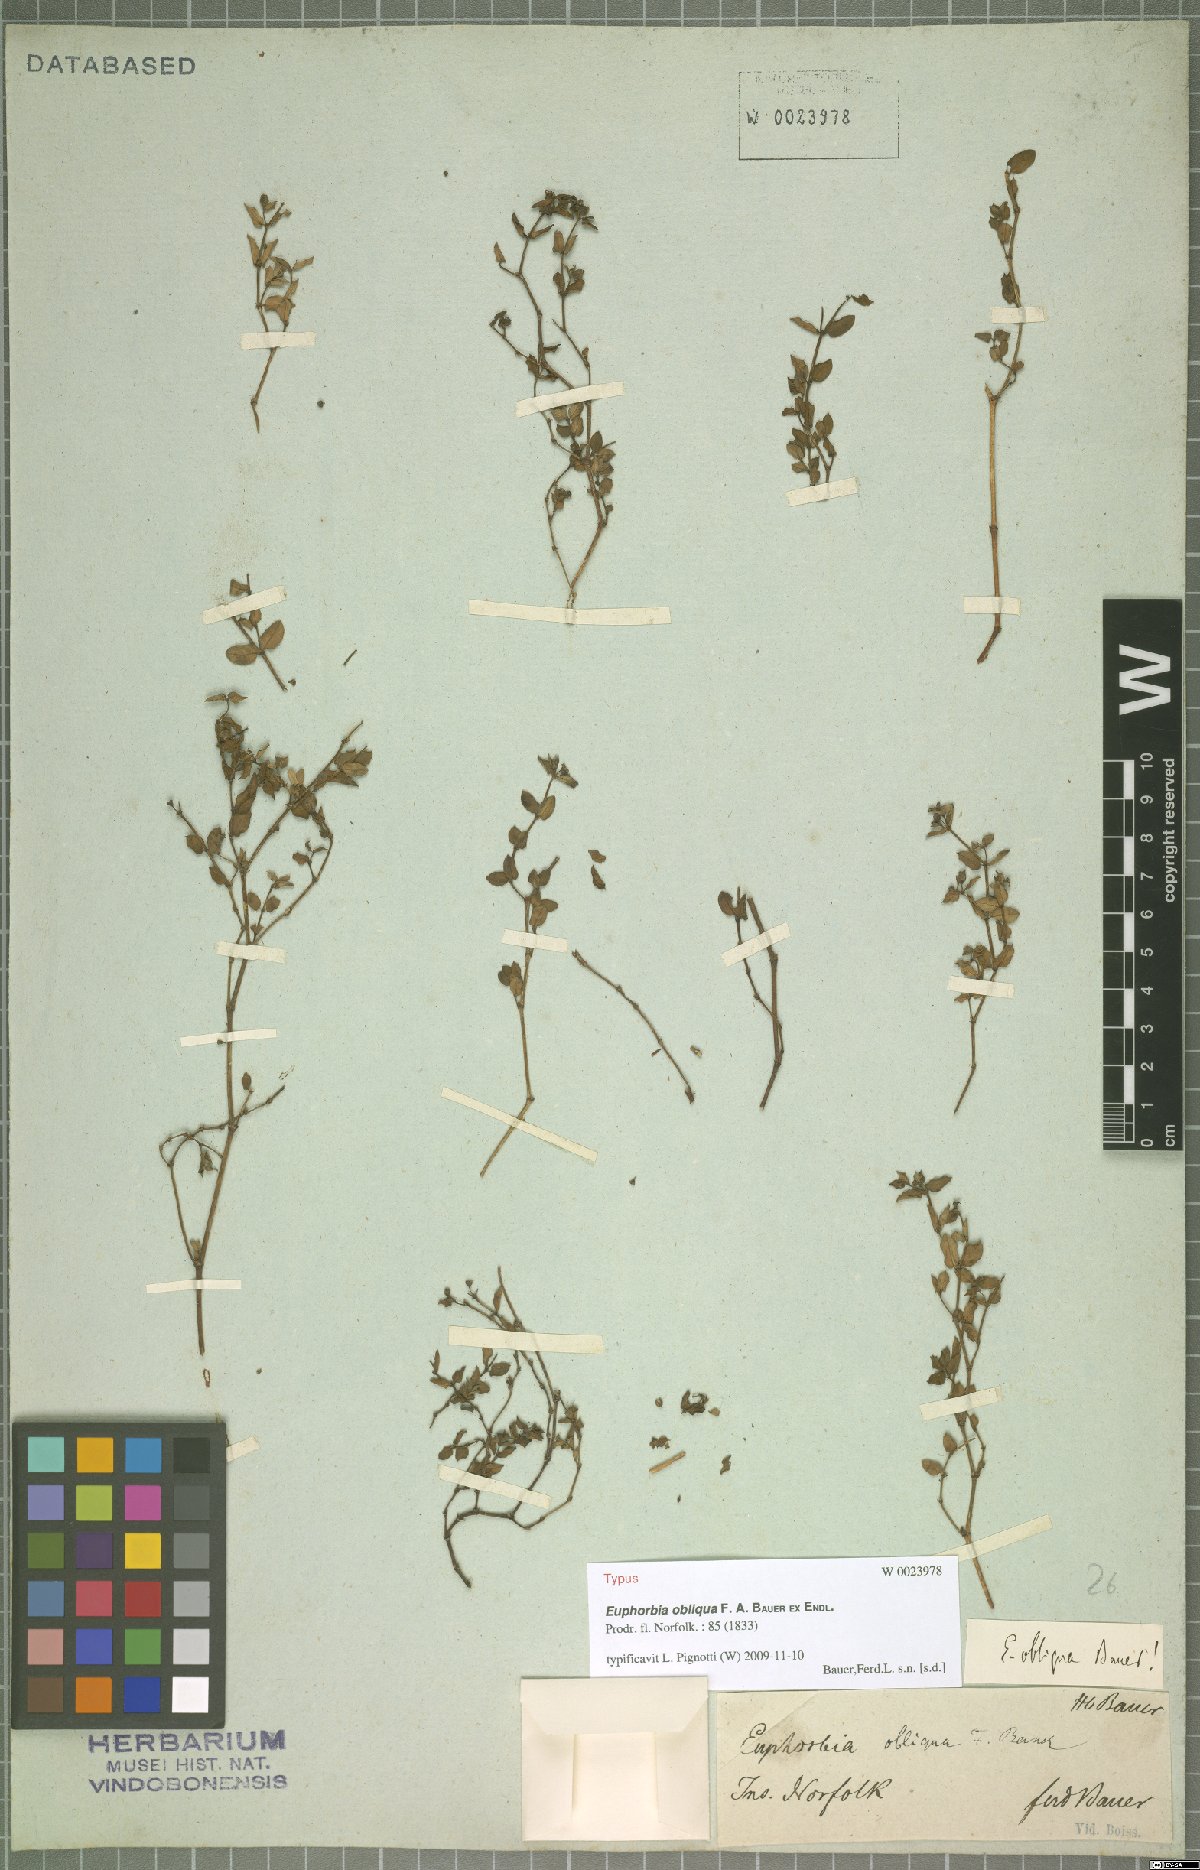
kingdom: Plantae
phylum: Tracheophyta
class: Magnoliopsida
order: Malpighiales
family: Euphorbiaceae
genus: Euphorbia
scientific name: Euphorbia obliqua
